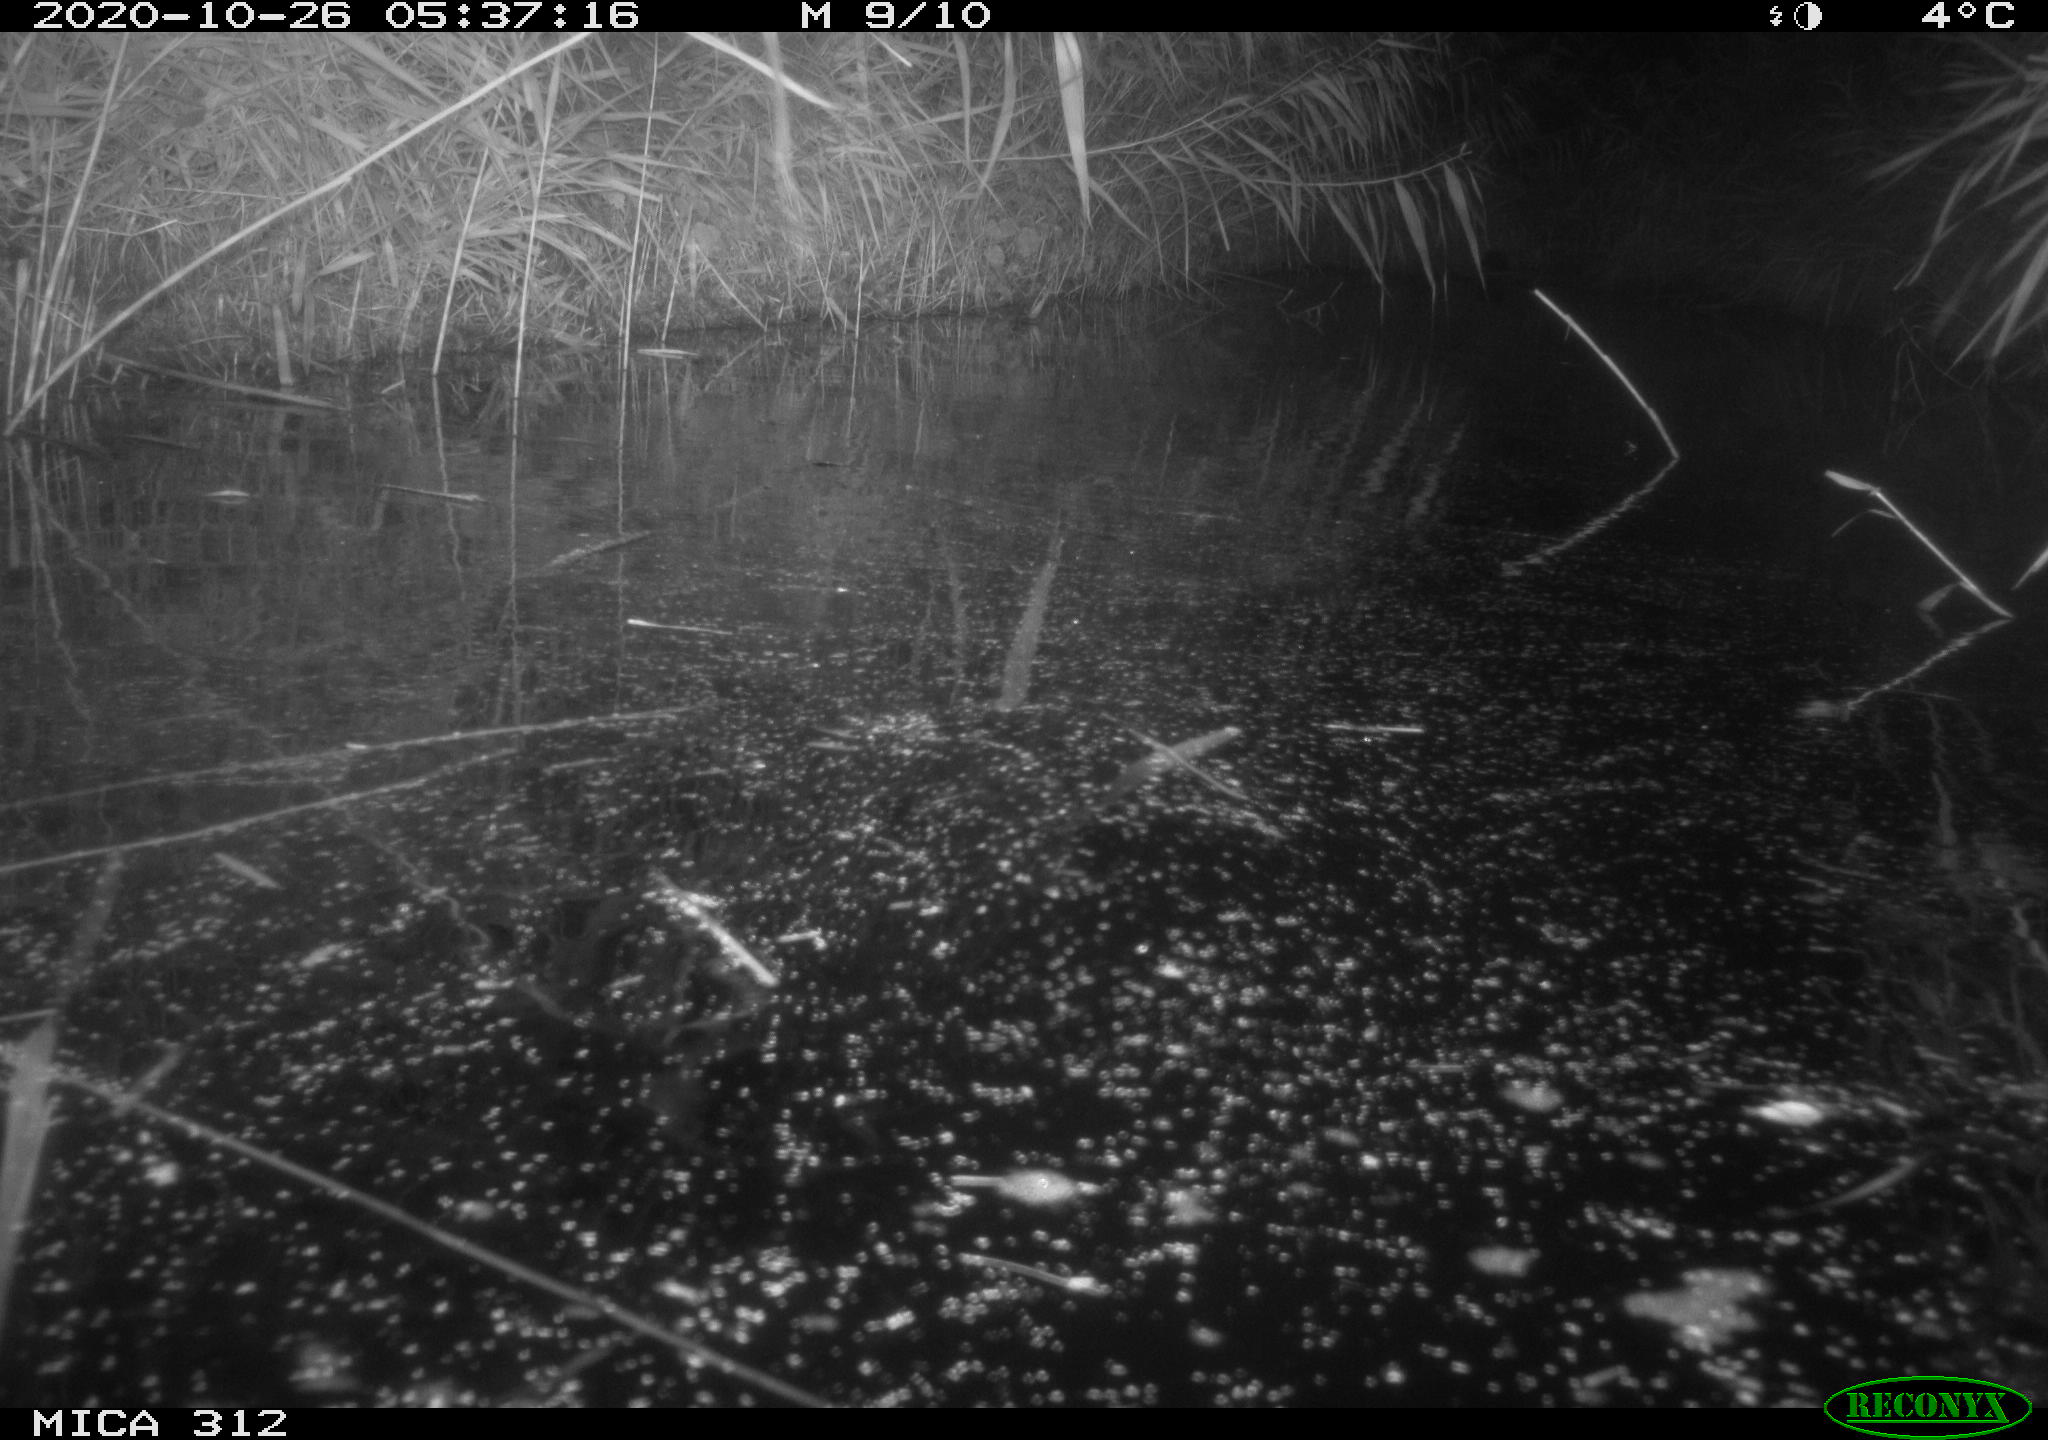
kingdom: Animalia
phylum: Chordata
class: Mammalia
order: Rodentia
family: Muridae
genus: Rattus
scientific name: Rattus norvegicus
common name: Brown rat
